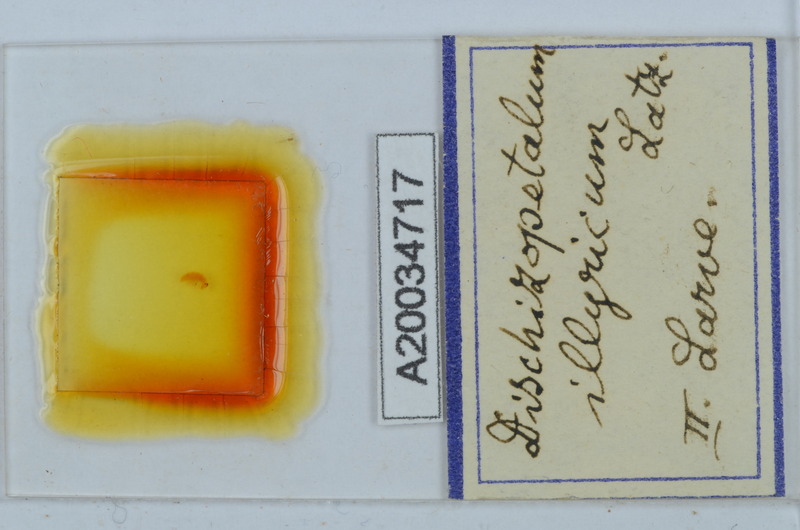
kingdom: Animalia
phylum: Arthropoda
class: Diplopoda
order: Callipodida
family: Schizopetalidae
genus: Callipodella
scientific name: Callipodella
